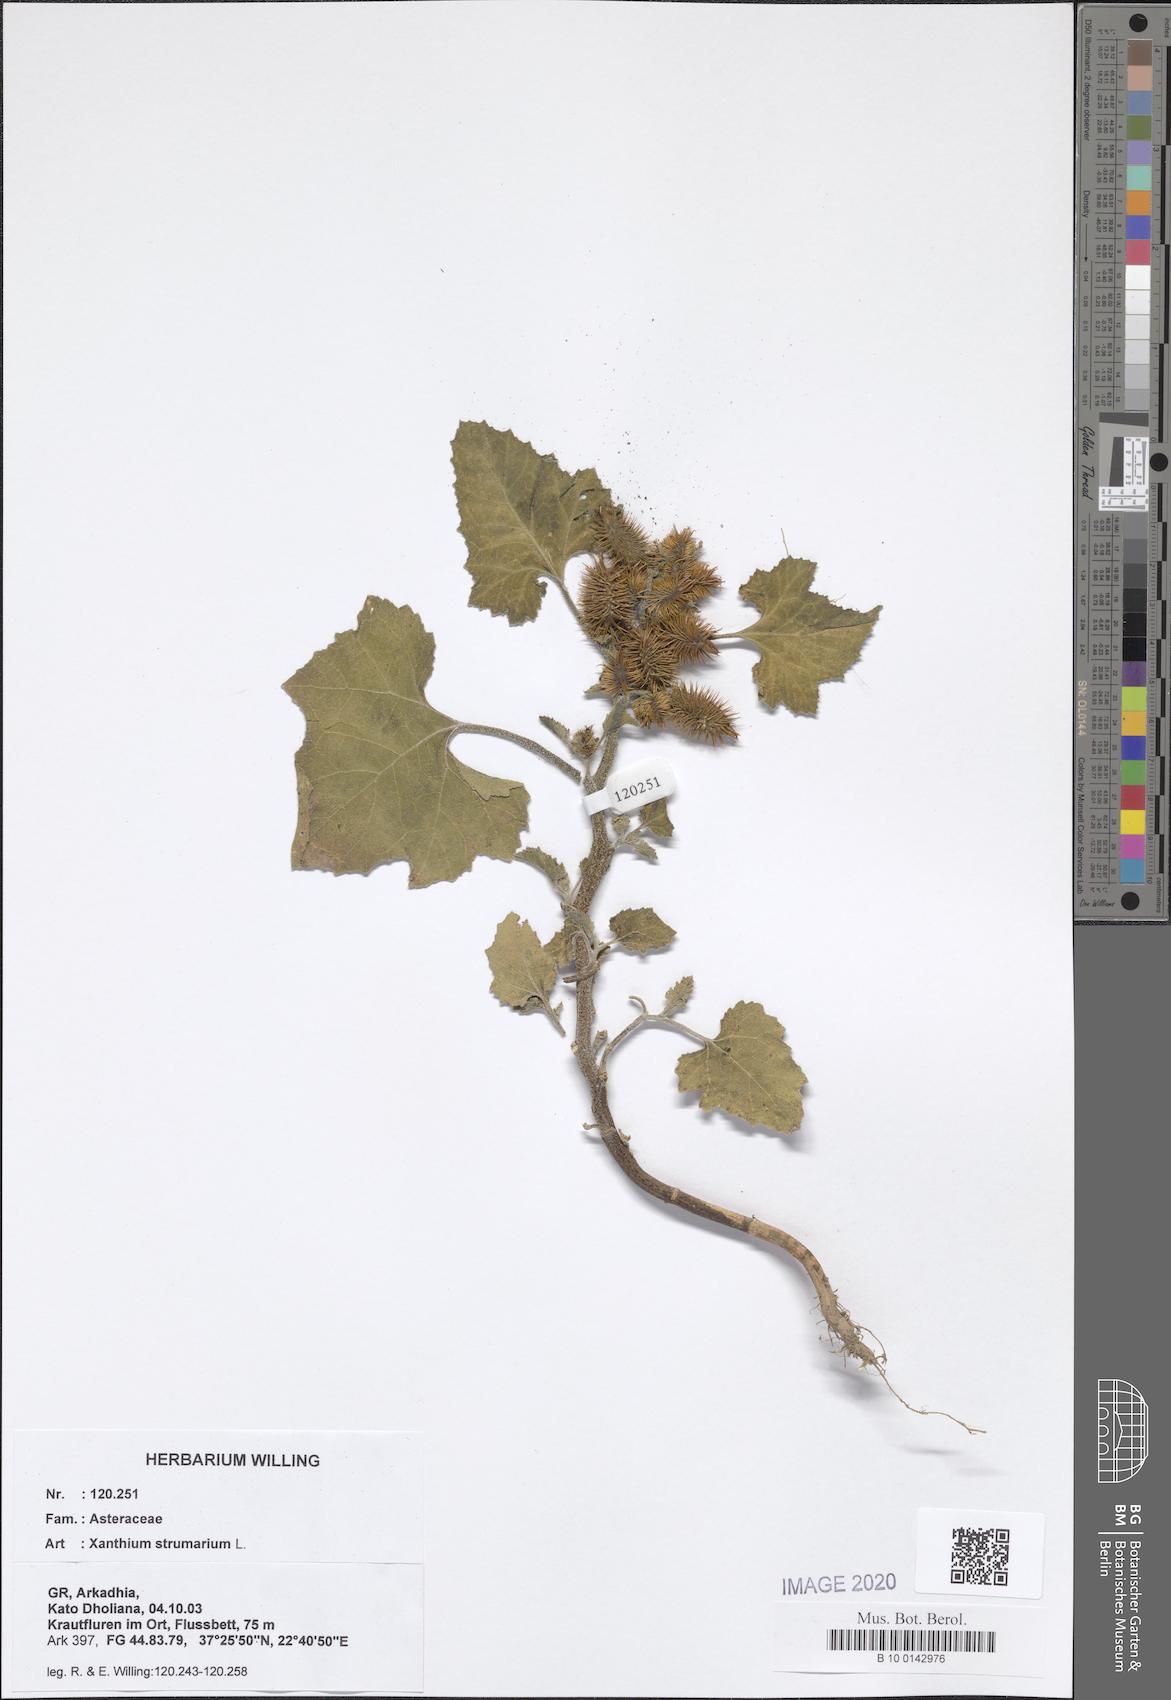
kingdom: Plantae
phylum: Tracheophyta
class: Magnoliopsida
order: Asterales
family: Asteraceae
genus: Xanthium
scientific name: Xanthium strumarium
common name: Rough cocklebur
